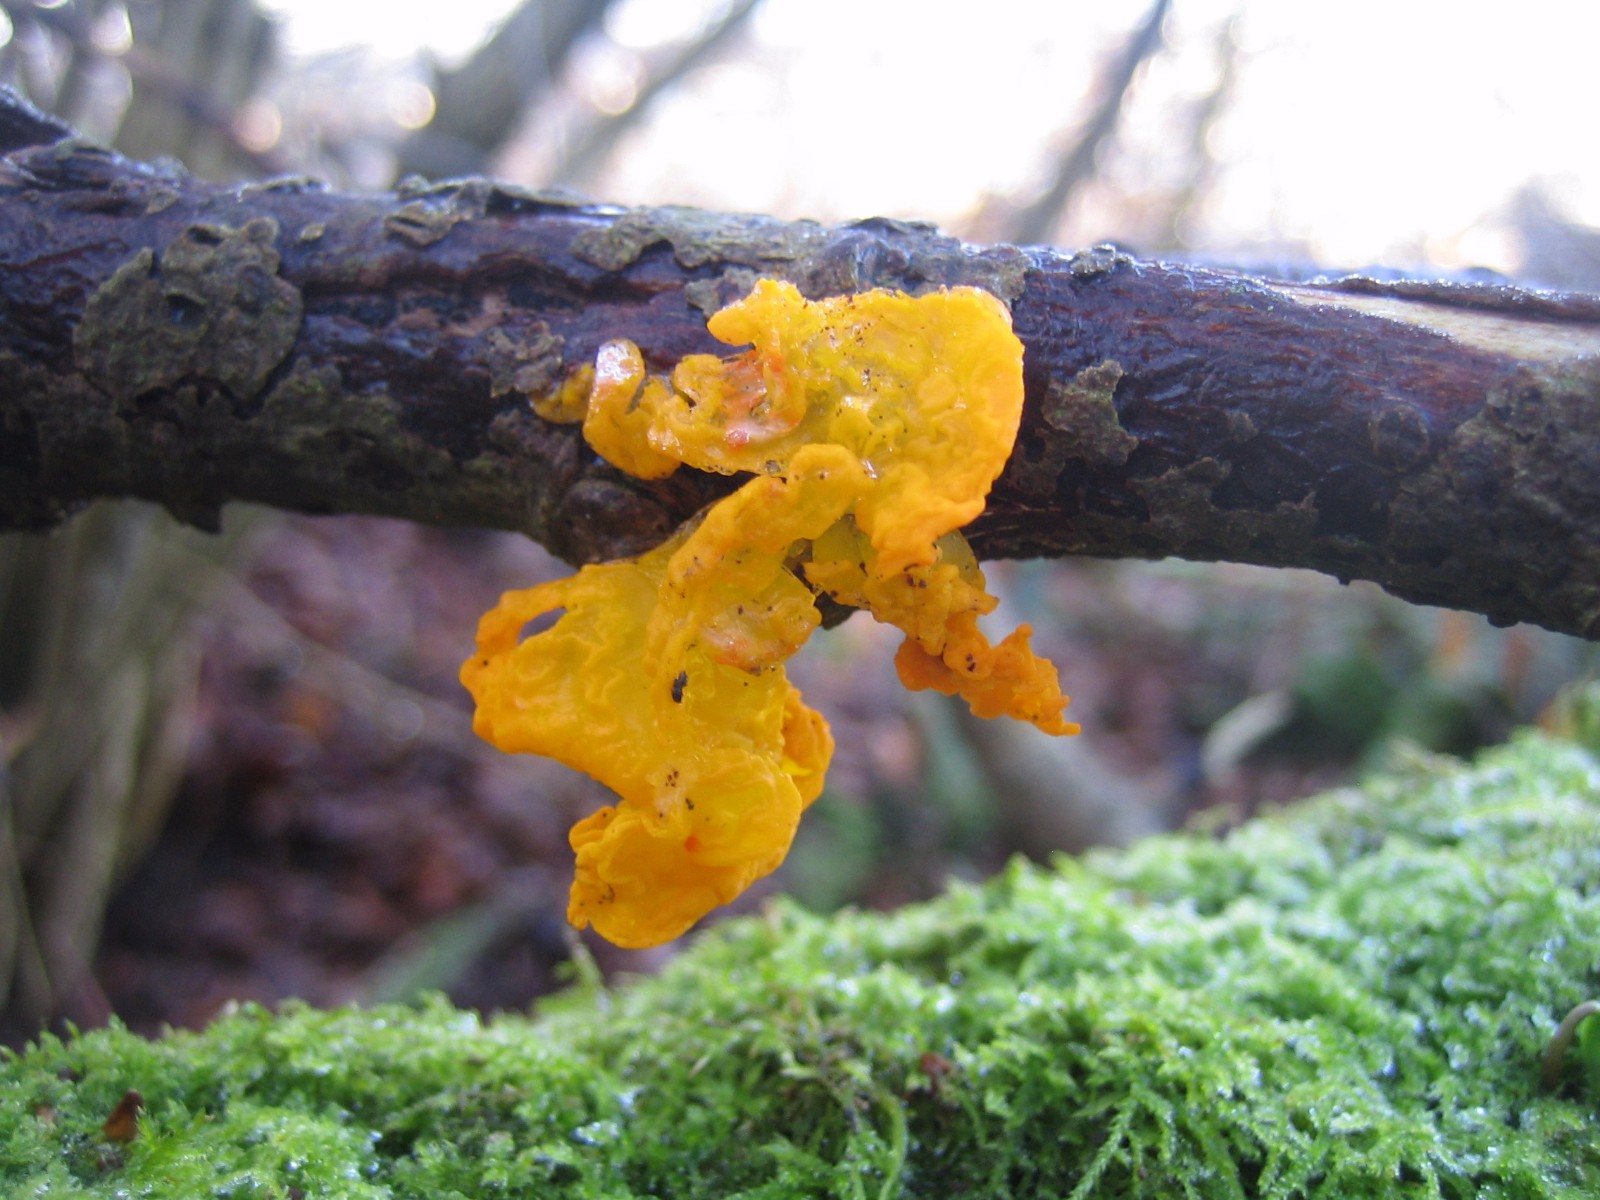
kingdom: Fungi
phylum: Basidiomycota
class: Tremellomycetes
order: Tremellales
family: Tremellaceae
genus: Tremella
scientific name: Tremella mesenterica
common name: gul bævresvamp
